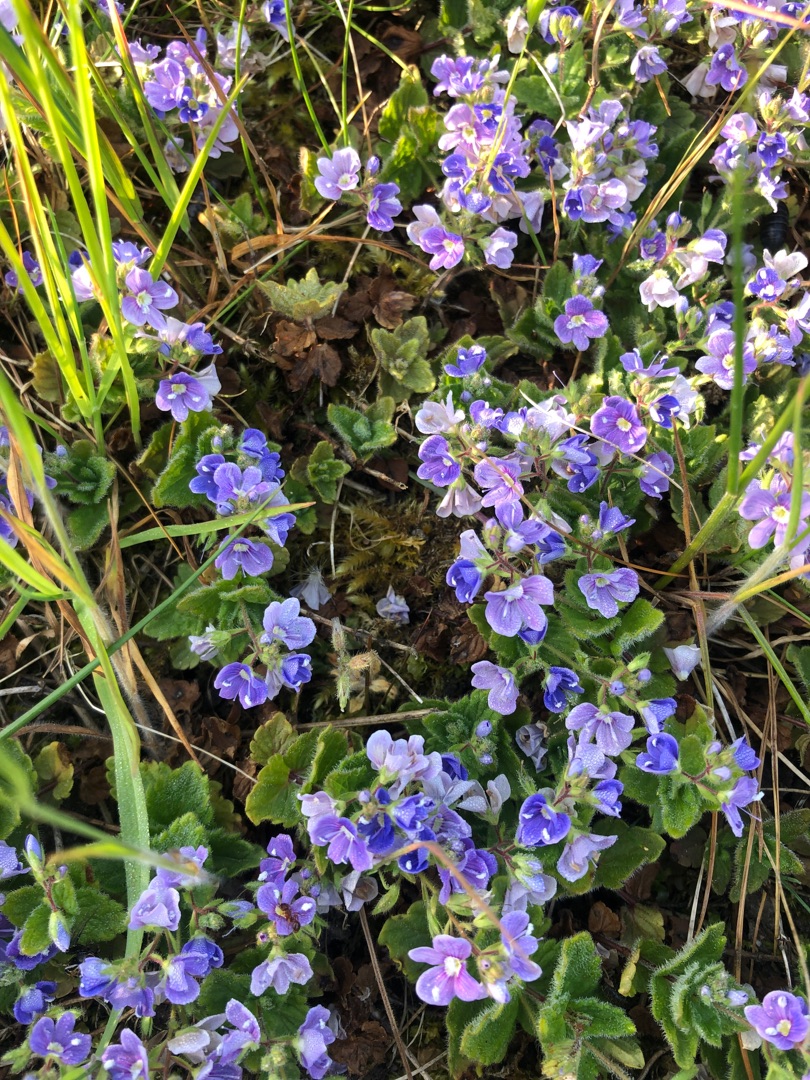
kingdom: Plantae
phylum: Tracheophyta
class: Magnoliopsida
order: Lamiales
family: Plantaginaceae
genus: Veronica
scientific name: Veronica chamaedrys
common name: Tveskægget ærenpris
